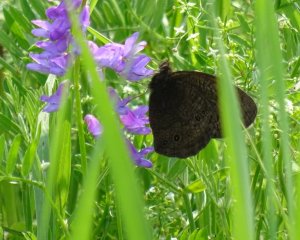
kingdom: Animalia
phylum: Arthropoda
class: Insecta
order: Lepidoptera
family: Nymphalidae
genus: Cercyonis
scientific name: Cercyonis pegala
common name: Common Wood-Nymph
